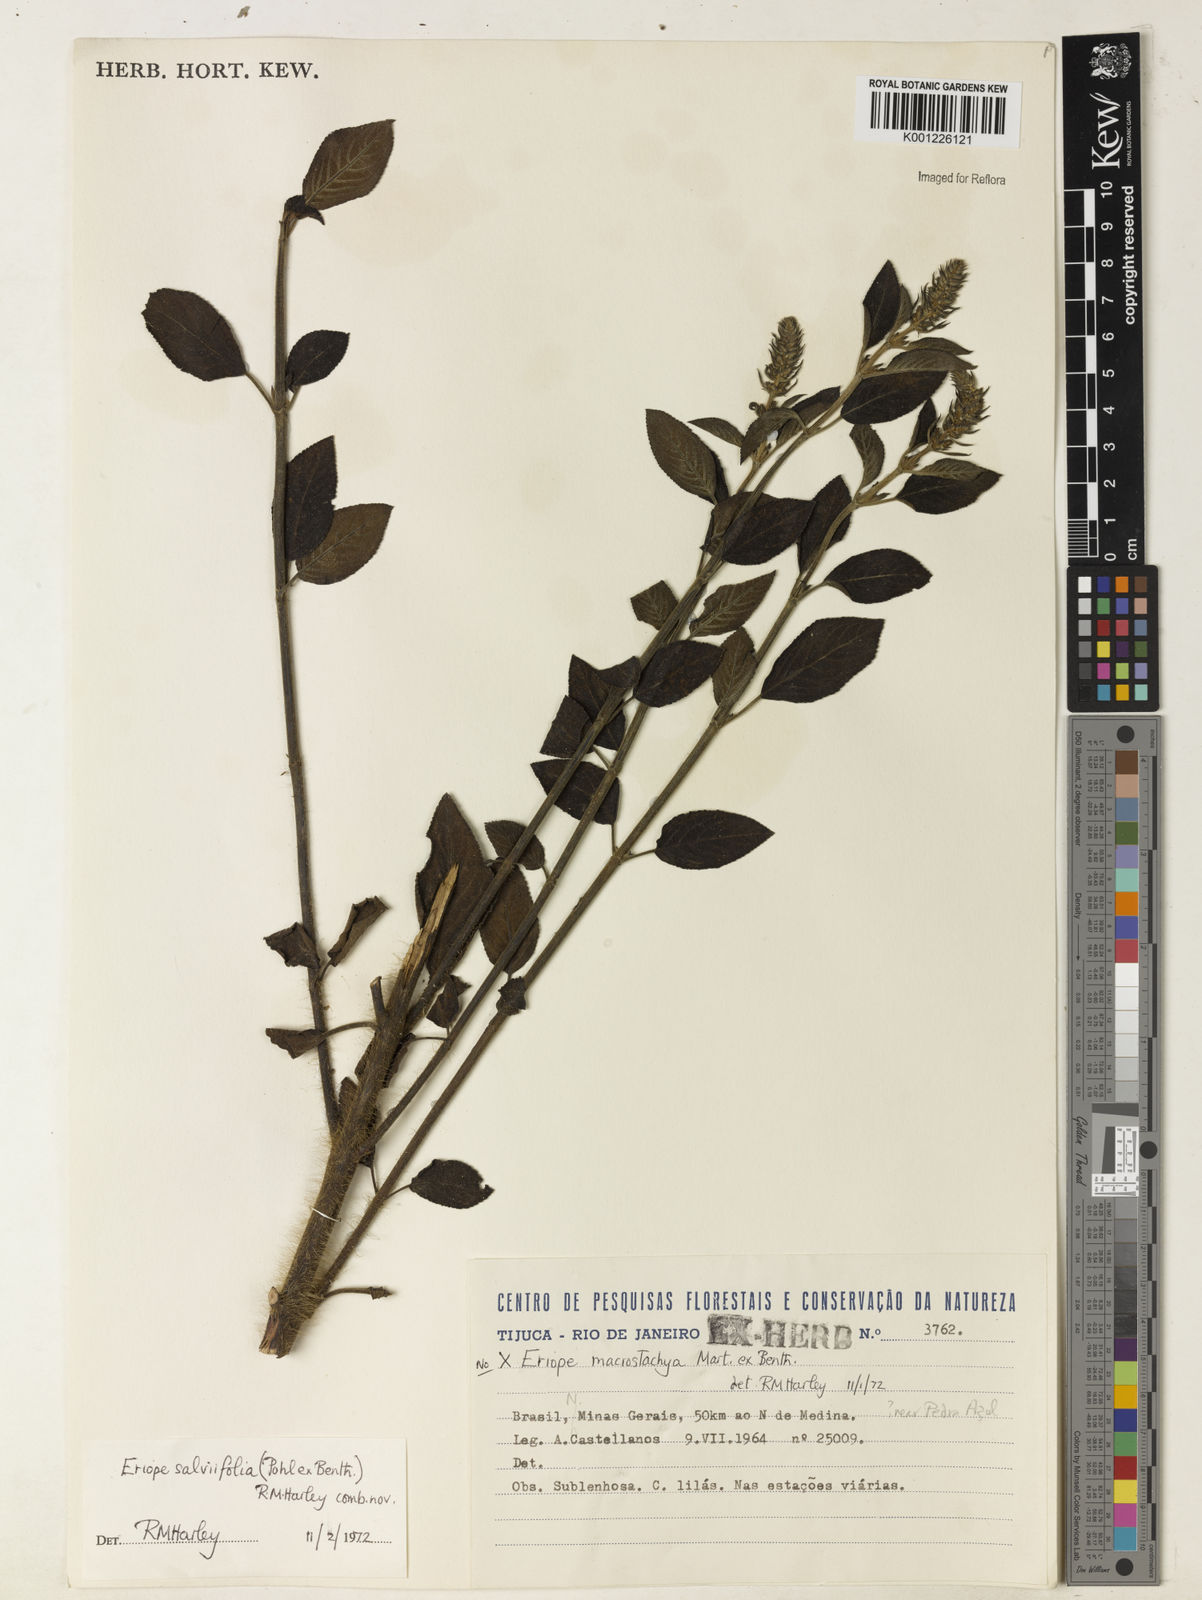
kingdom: Plantae
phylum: Tracheophyta
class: Magnoliopsida
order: Lamiales
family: Lamiaceae
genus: Eriope
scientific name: Eriope salviifolia
